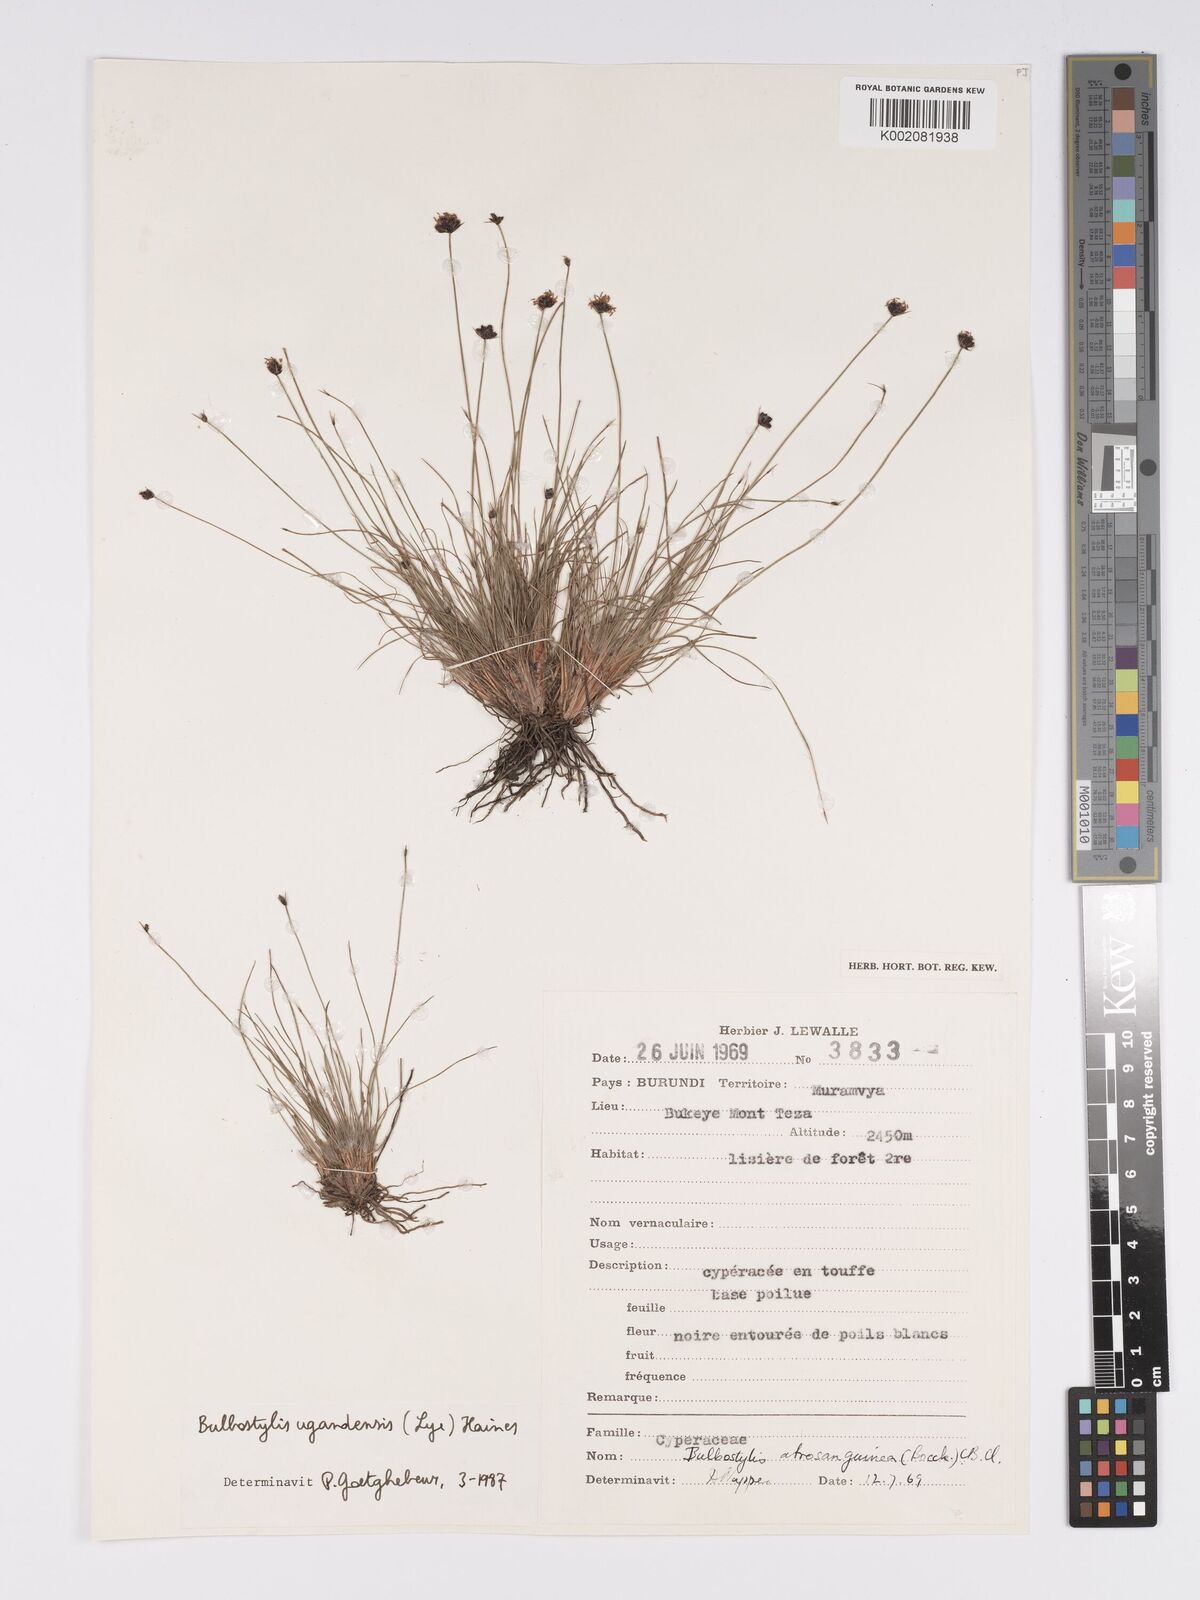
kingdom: Plantae
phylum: Tracheophyta
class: Liliopsida
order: Poales
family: Cyperaceae
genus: Bulbostylis
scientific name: Bulbostylis ugandensis
